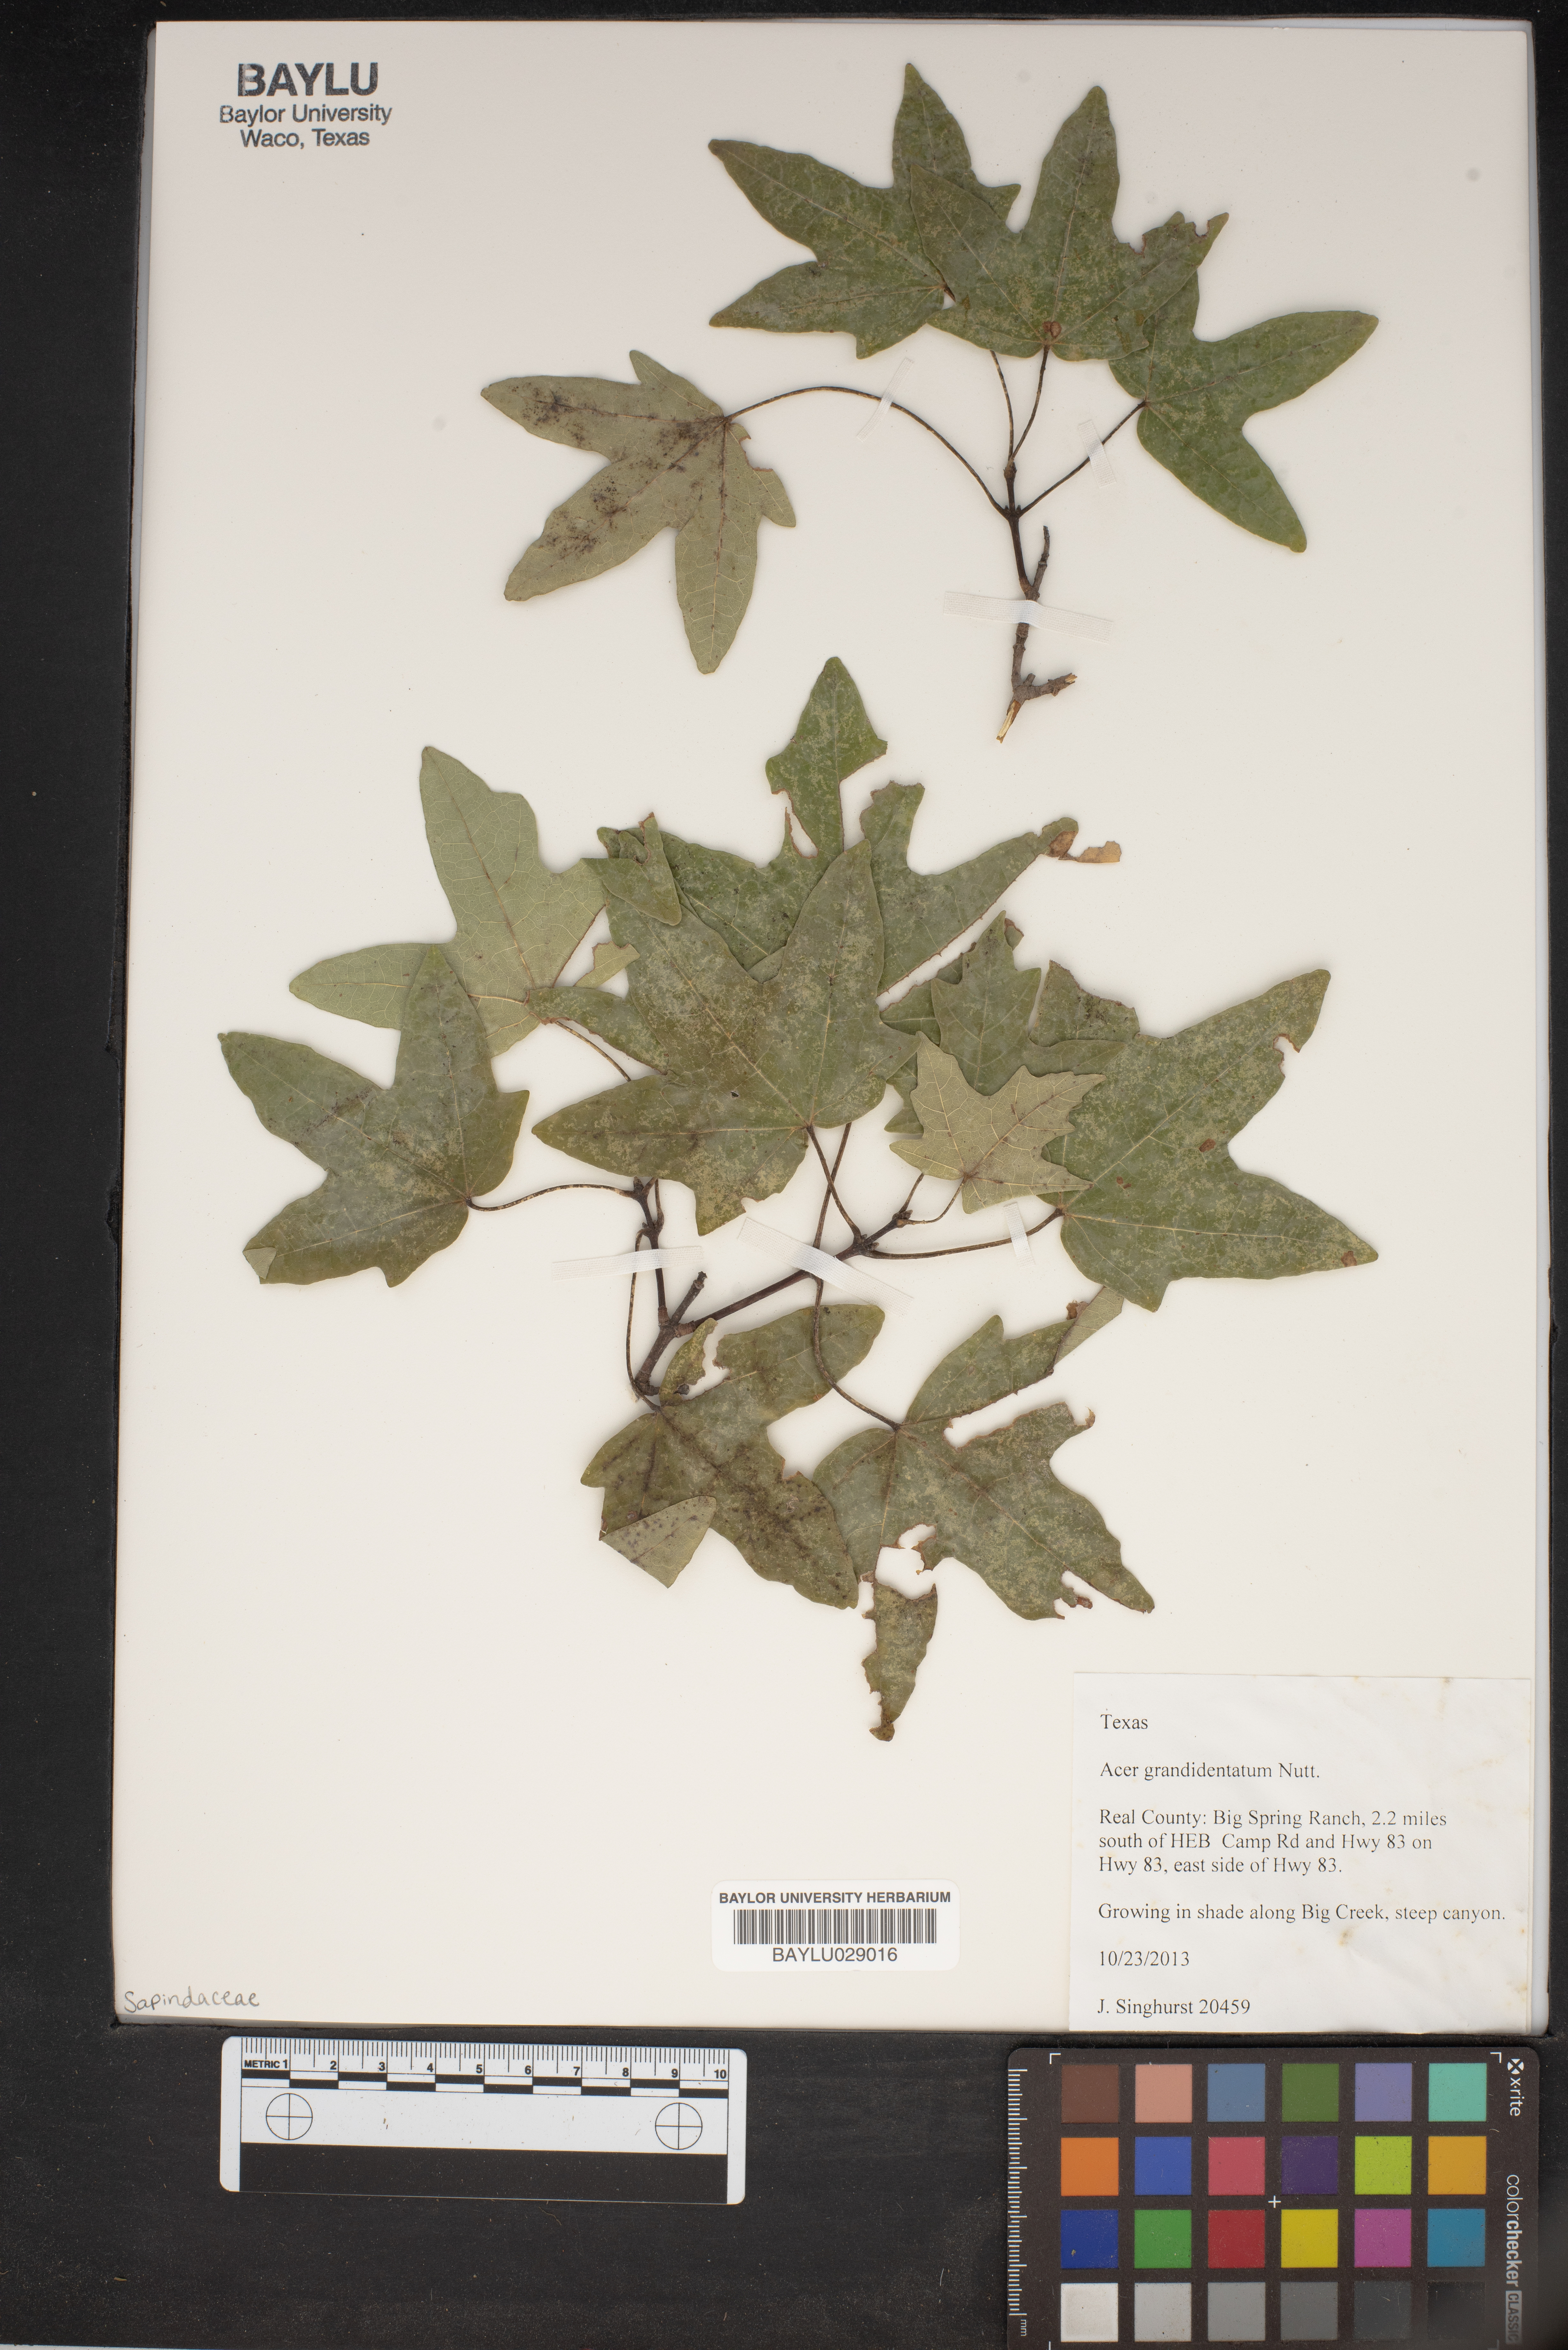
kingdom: Plantae
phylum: Tracheophyta
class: Magnoliopsida
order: Sapindales
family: Sapindaceae
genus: Acer
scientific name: Acer grandidentatum
